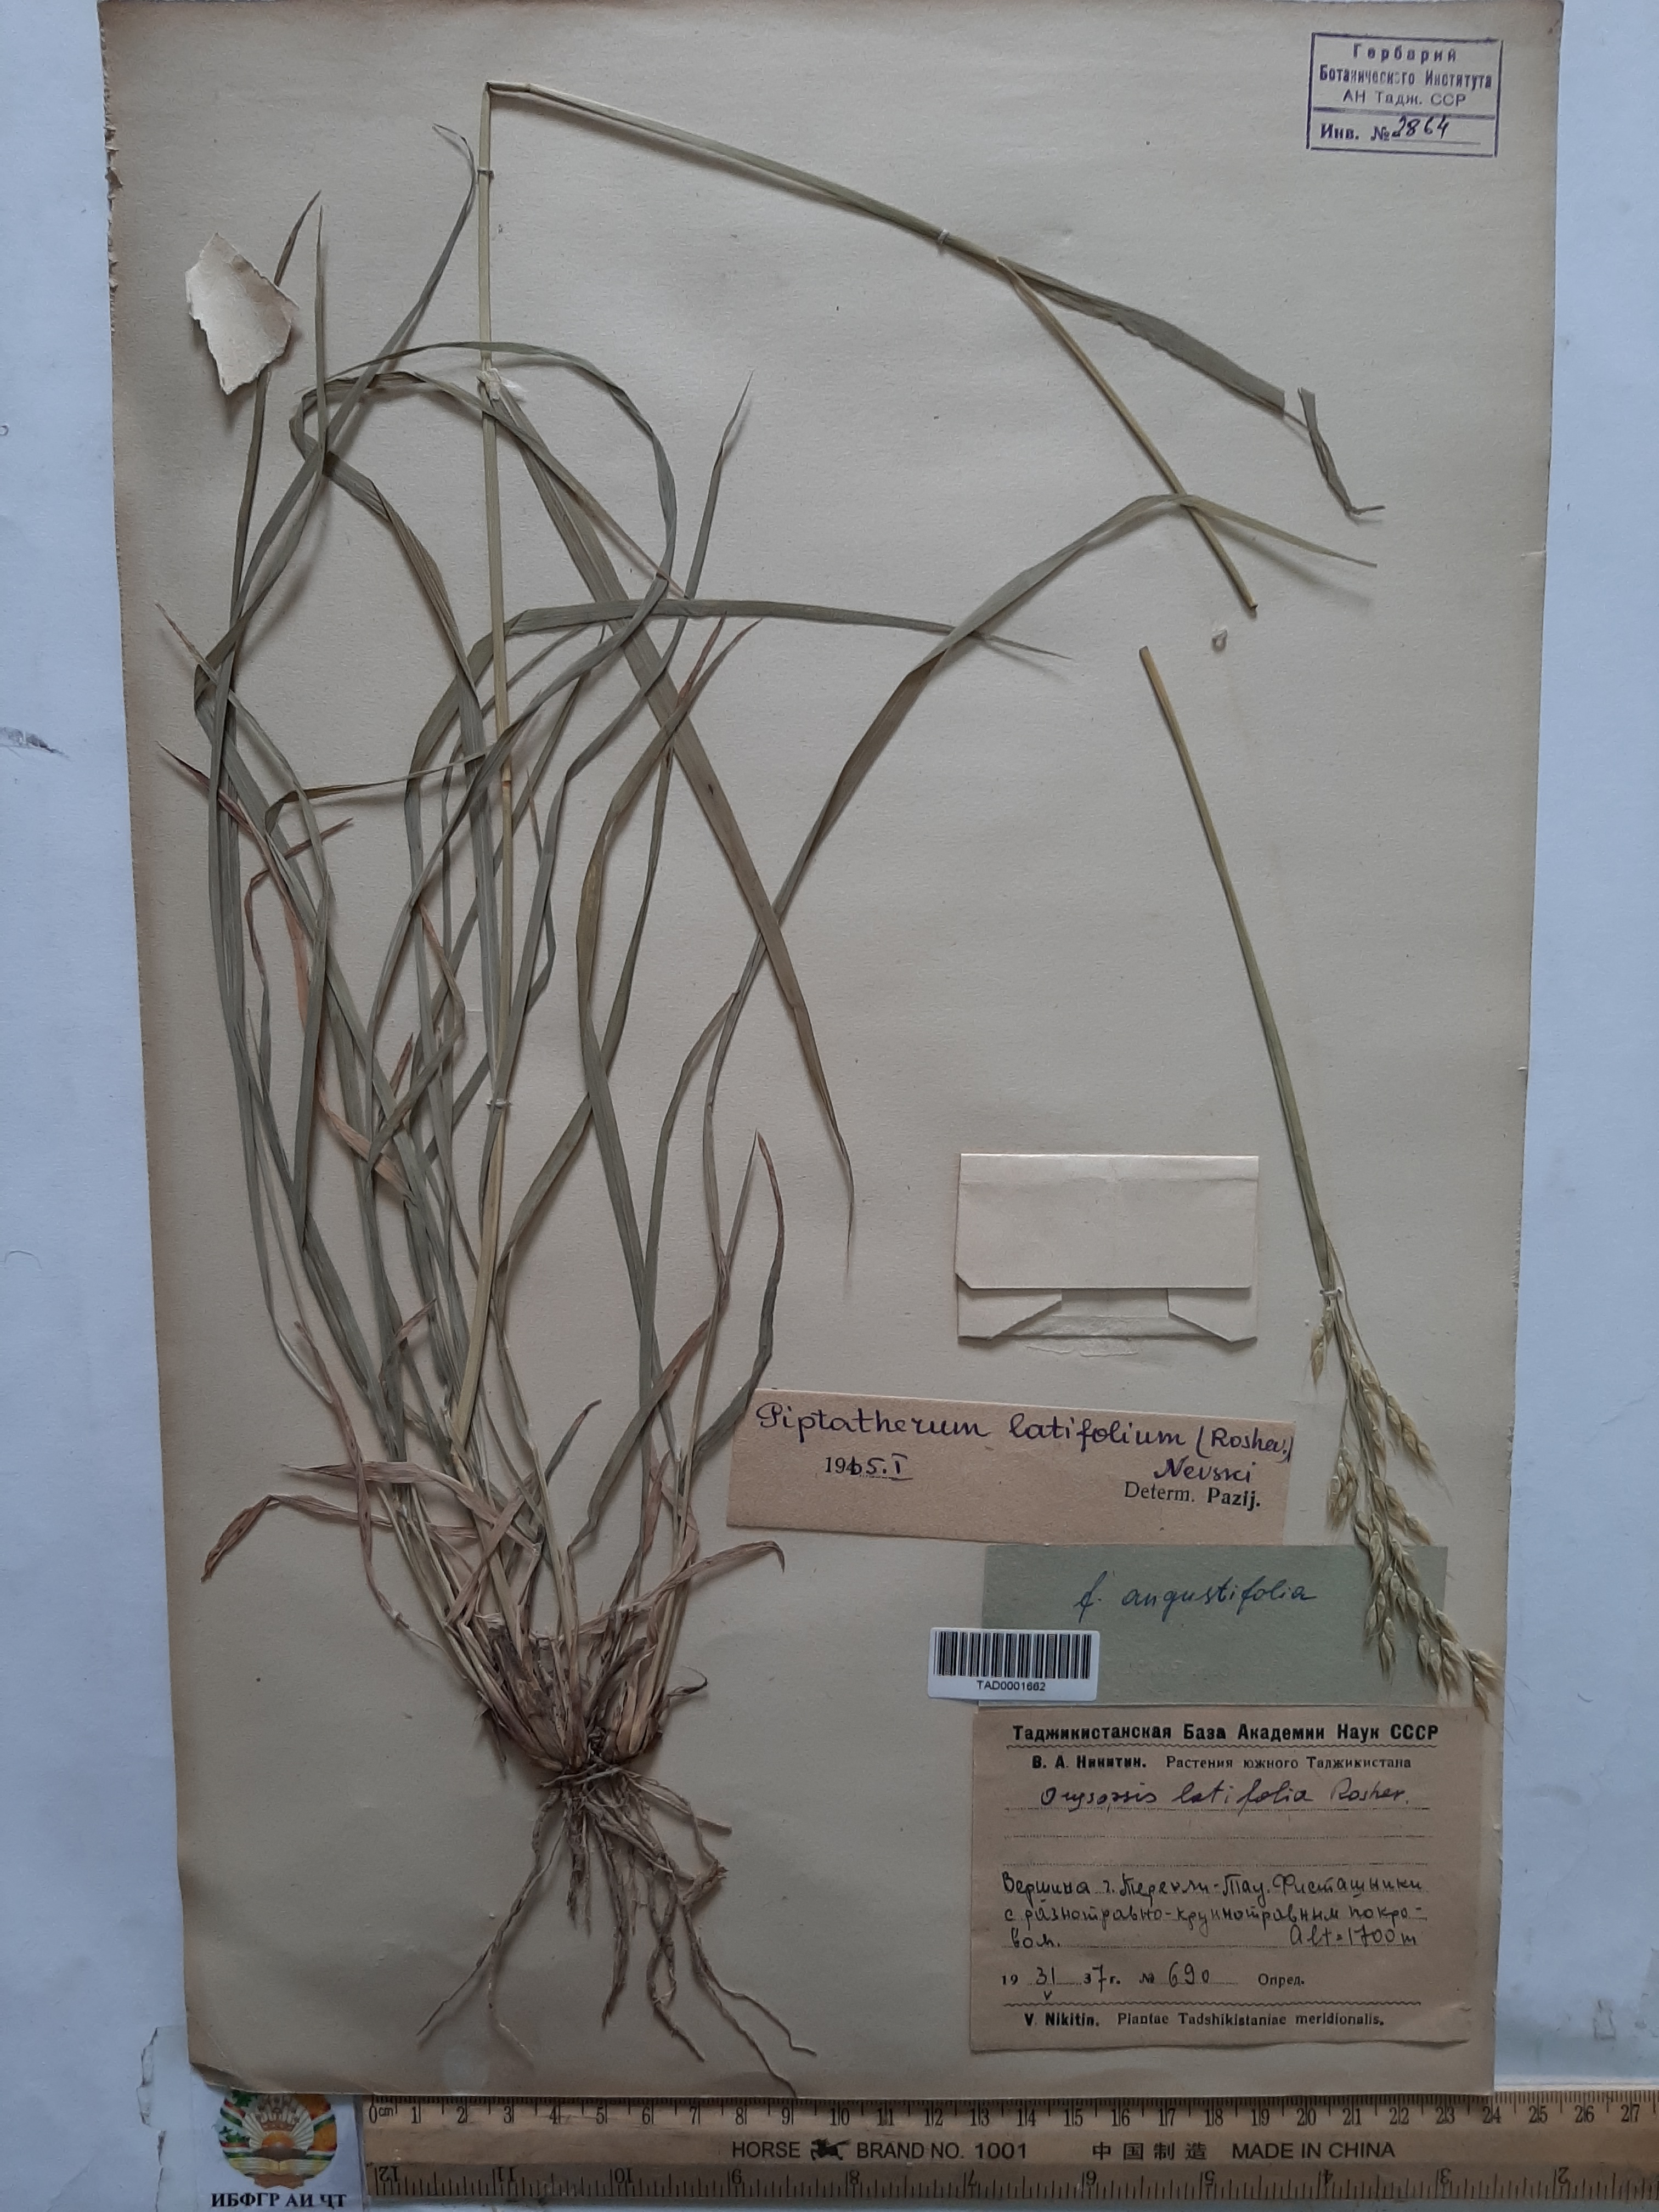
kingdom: Plantae
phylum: Tracheophyta
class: Liliopsida
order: Poales
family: Poaceae
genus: Piptatherum
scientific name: Piptatherum latifolium
